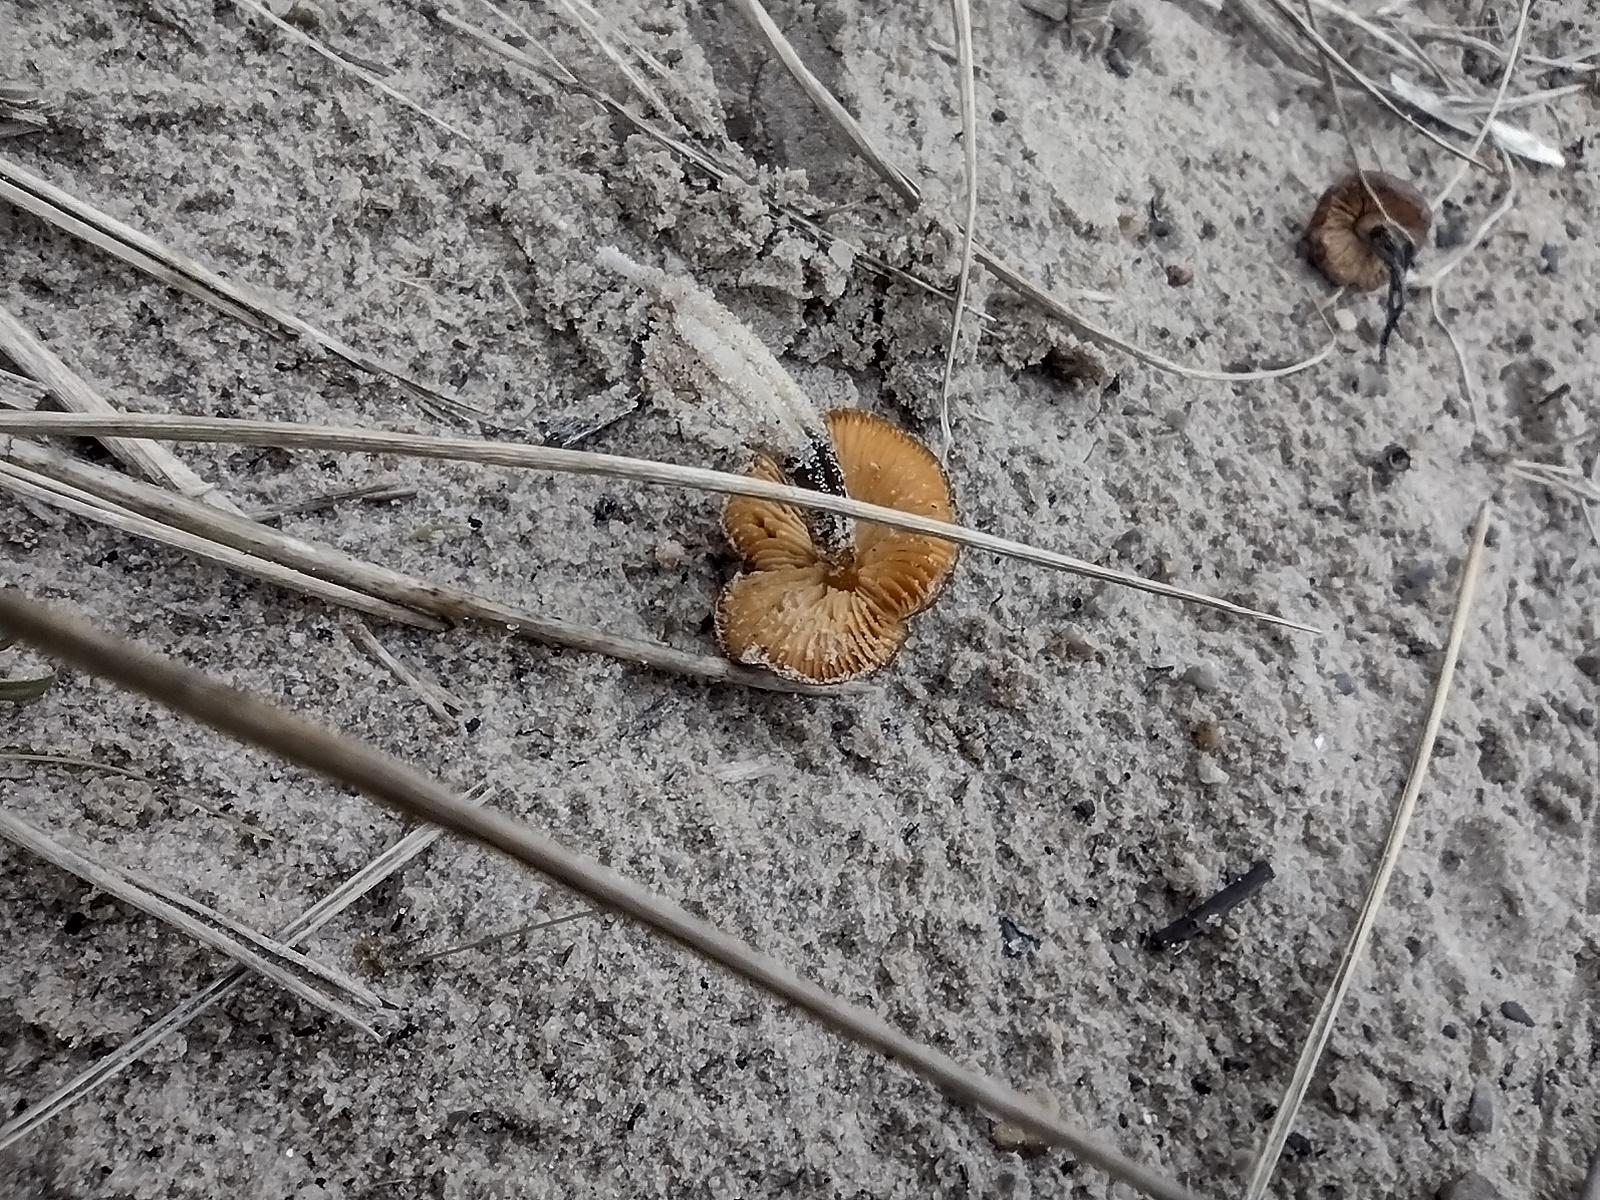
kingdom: Fungi
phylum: Basidiomycota
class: Agaricomycetes
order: Agaricales
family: Hygrophoraceae
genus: Hygrocybe
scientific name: Hygrocybe conicoides
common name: klit-vokshat
